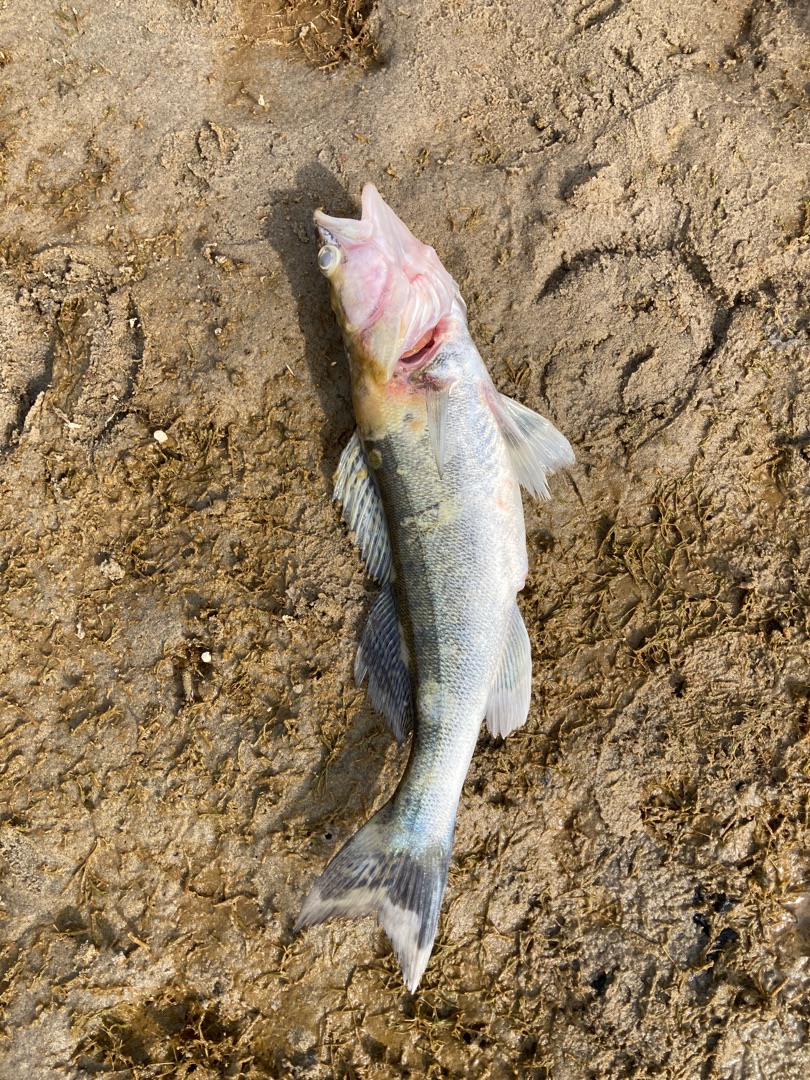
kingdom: Animalia
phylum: Chordata
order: Perciformes
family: Percidae
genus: Sander
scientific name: Sander lucioperca
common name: Sandart
